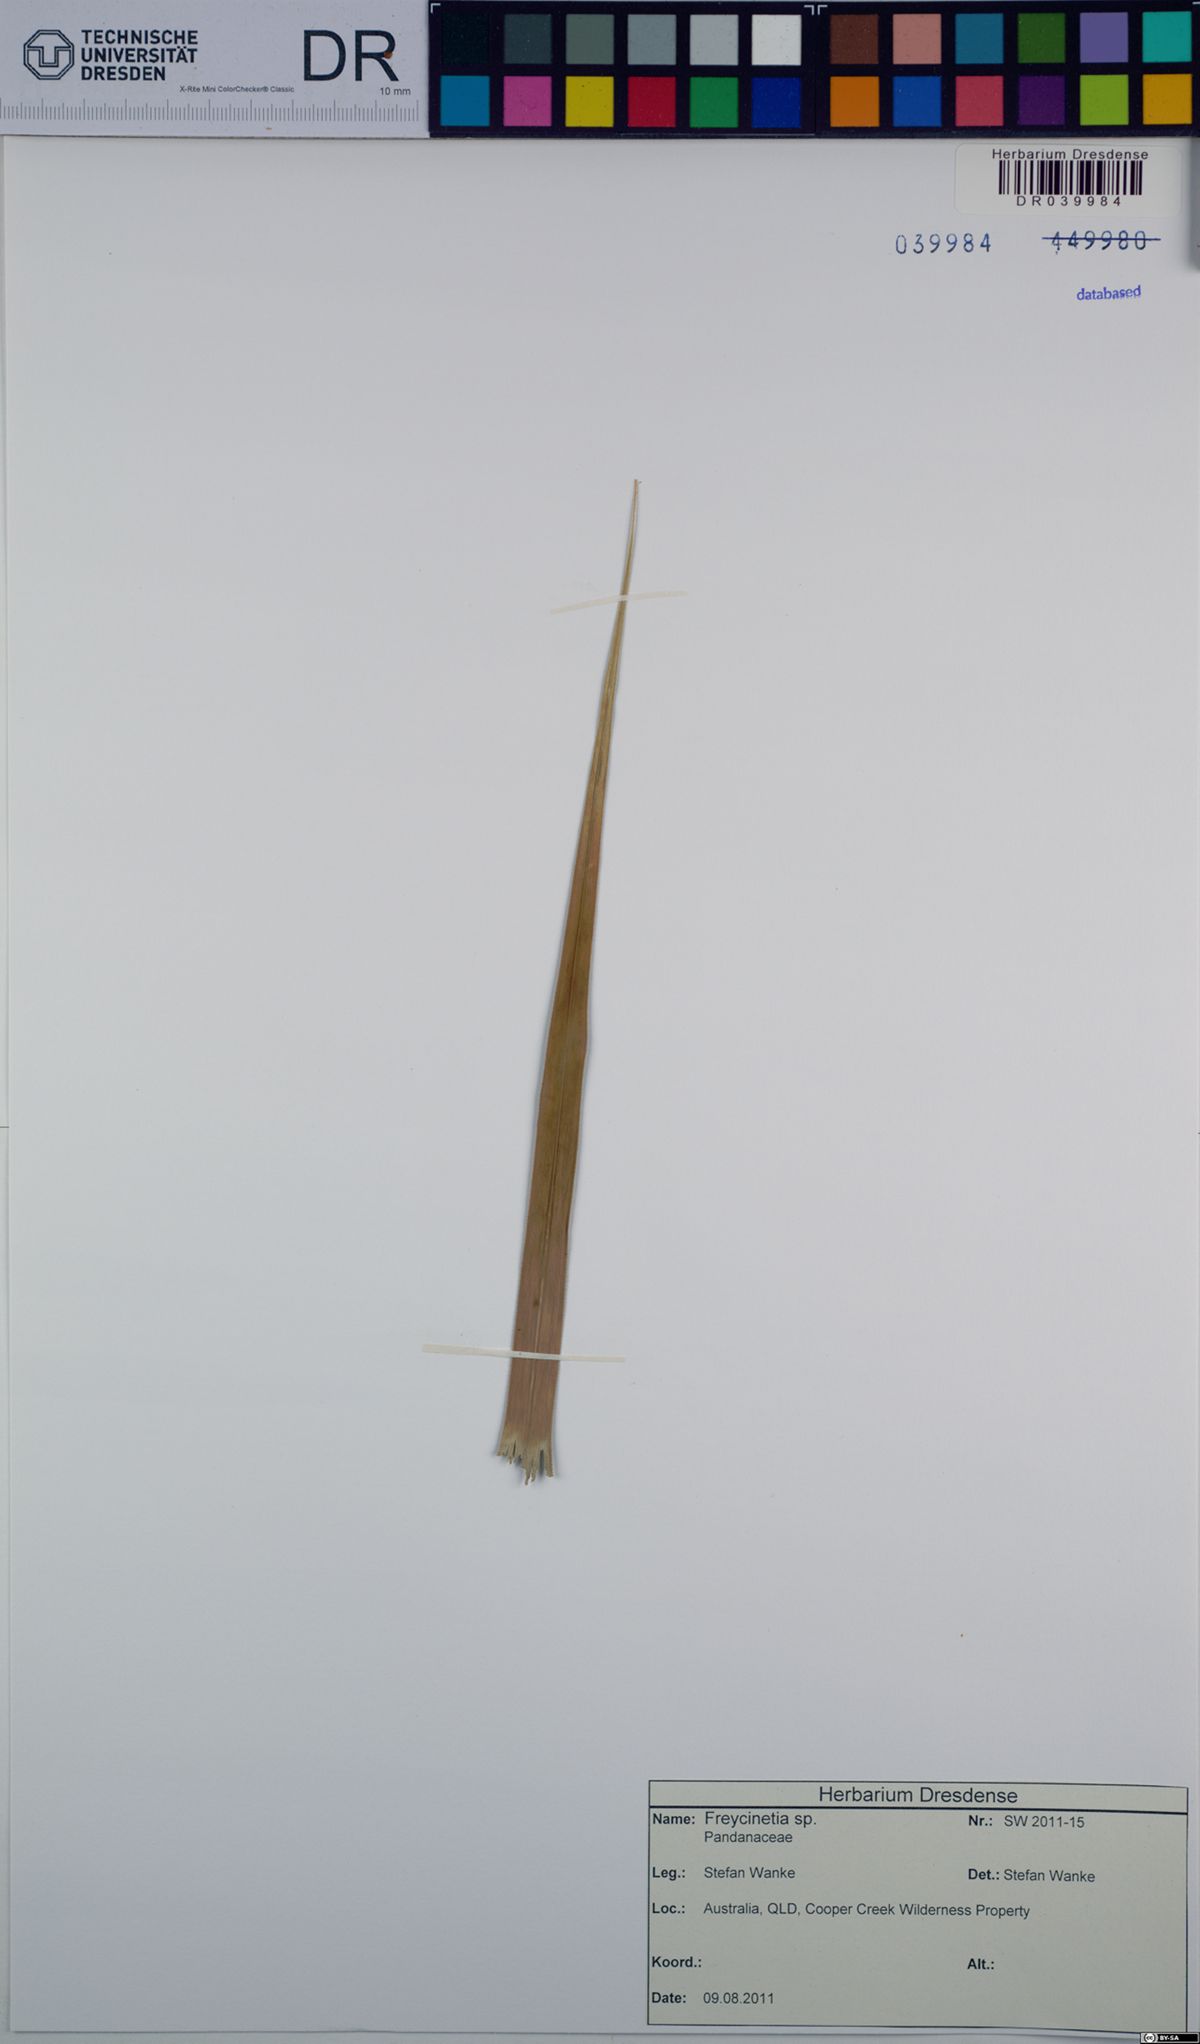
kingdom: Plantae
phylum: Tracheophyta
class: Liliopsida
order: Pandanales
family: Pandanaceae
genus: Freycinetia
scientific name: Freycinetia
